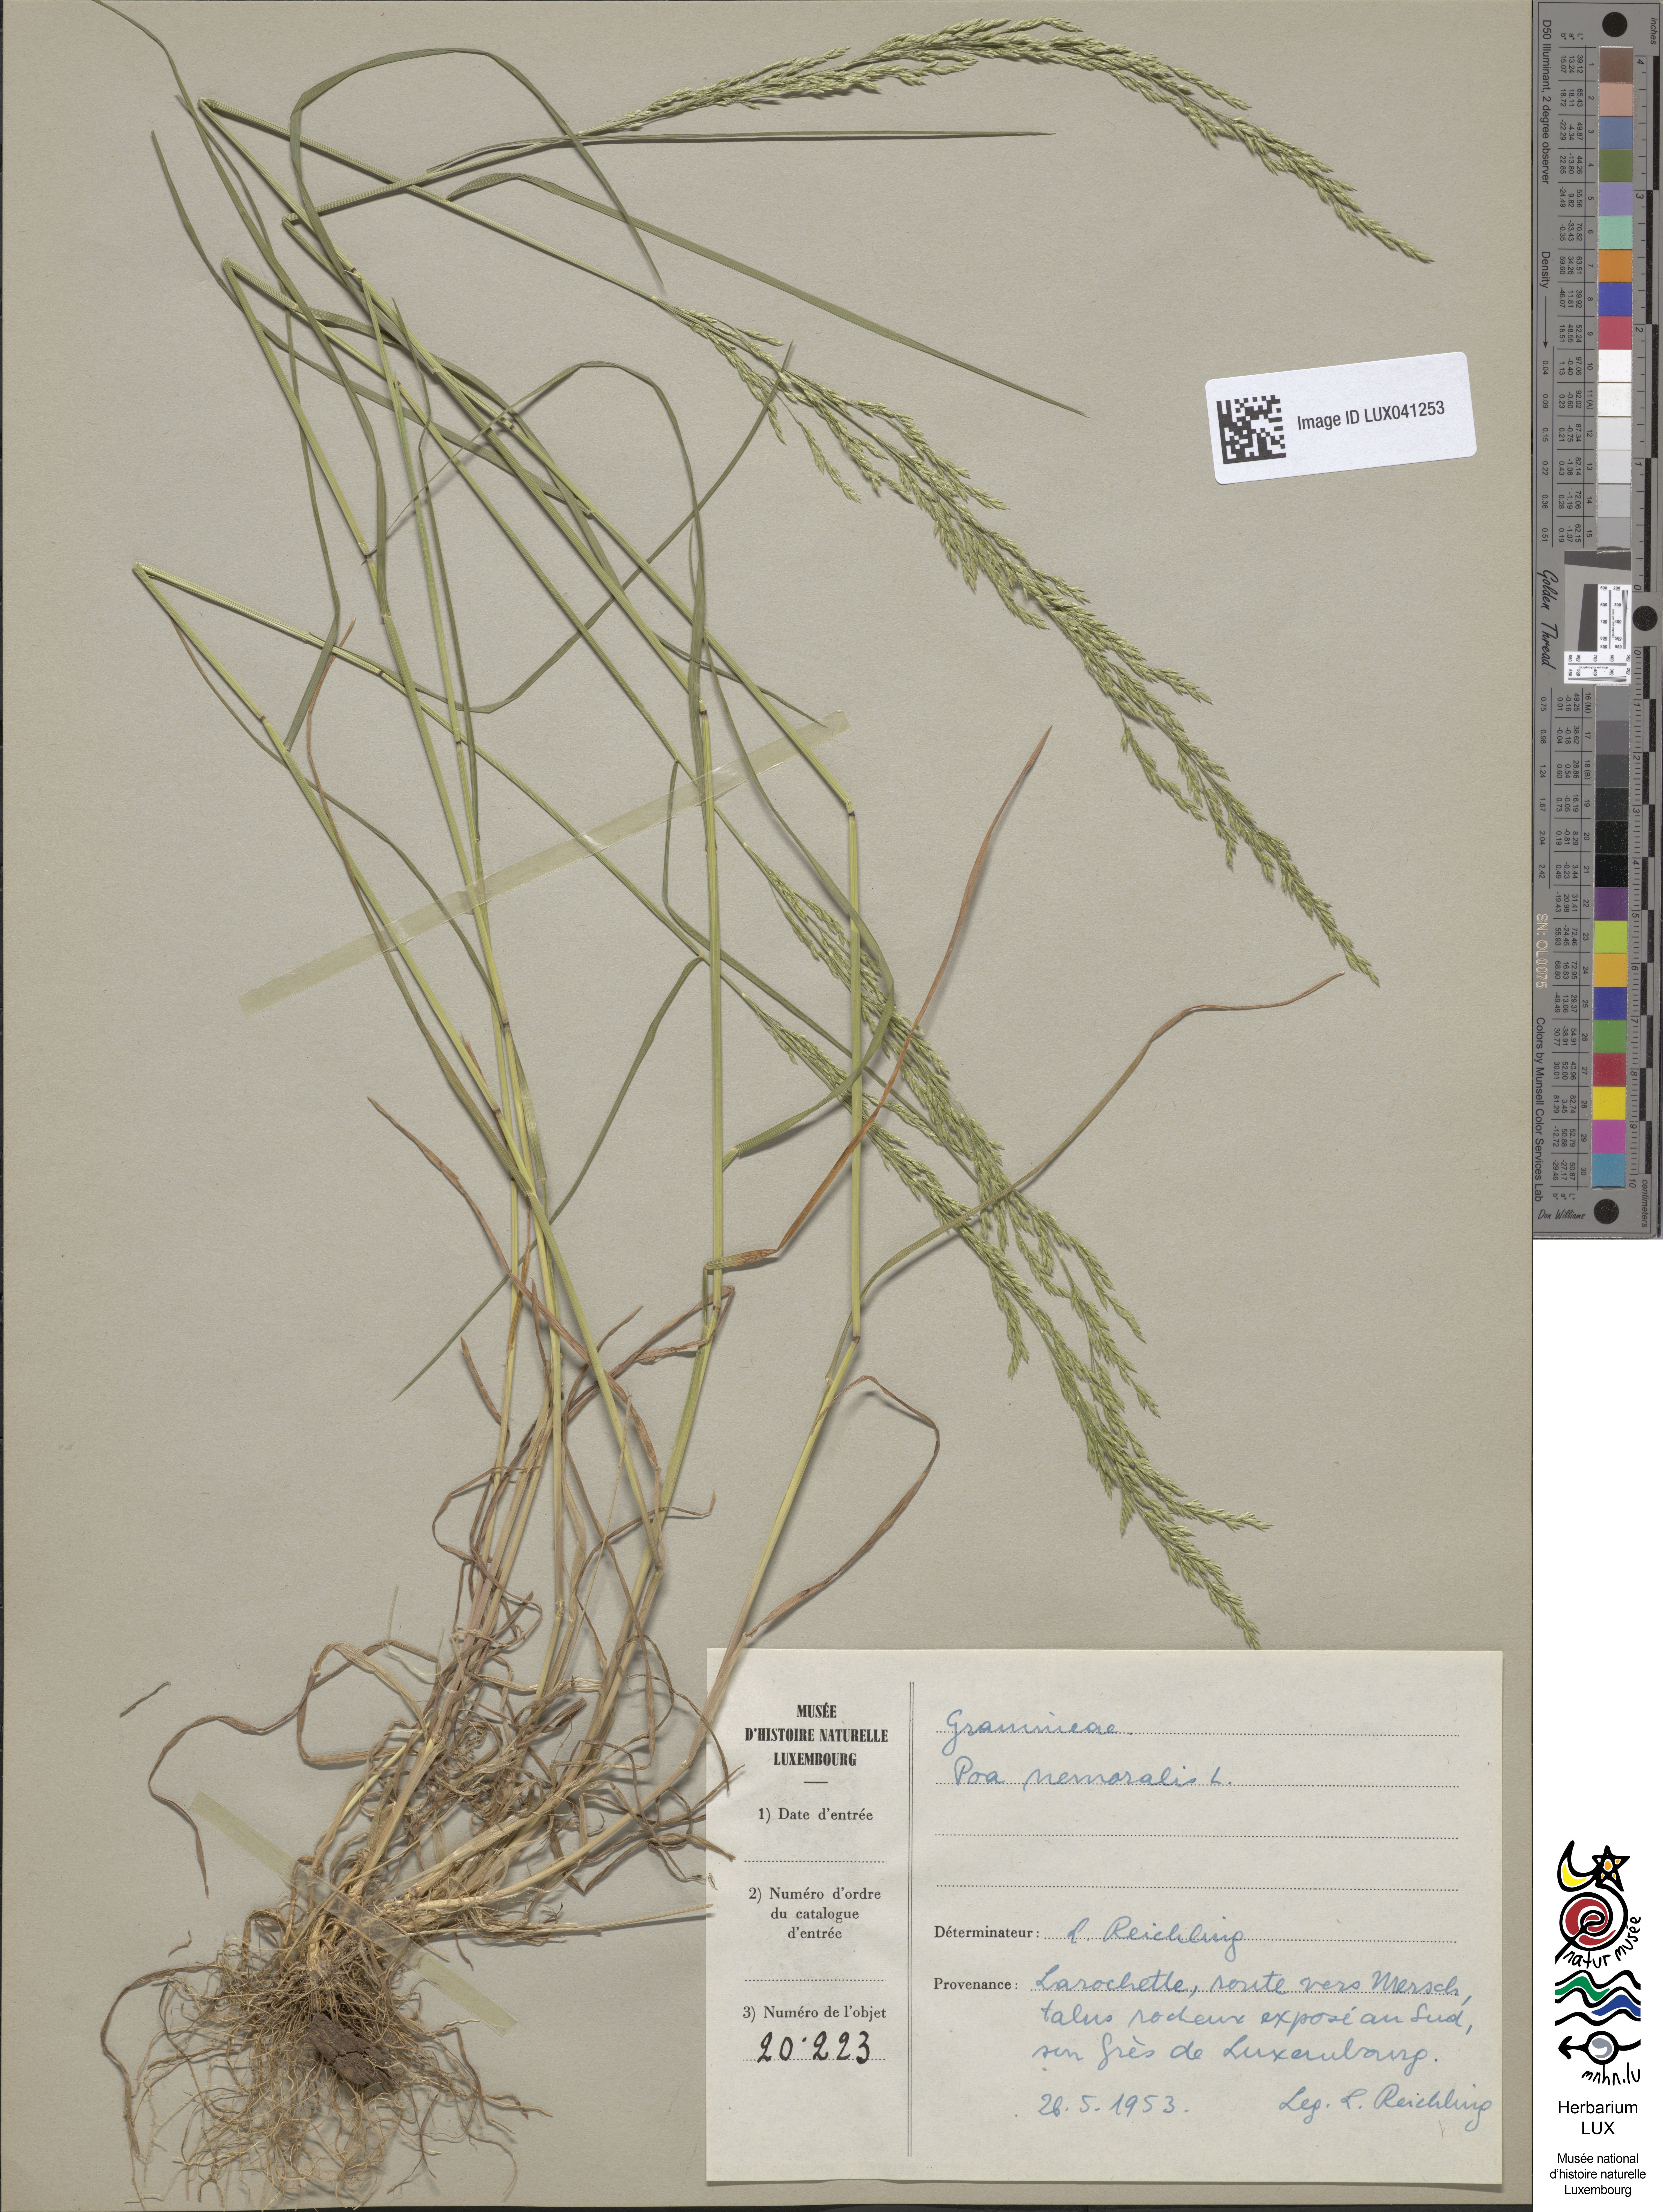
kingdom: Plantae
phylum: Tracheophyta
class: Liliopsida
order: Poales
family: Poaceae
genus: Poa
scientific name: Poa nemoralis
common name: Wood bluegrass
